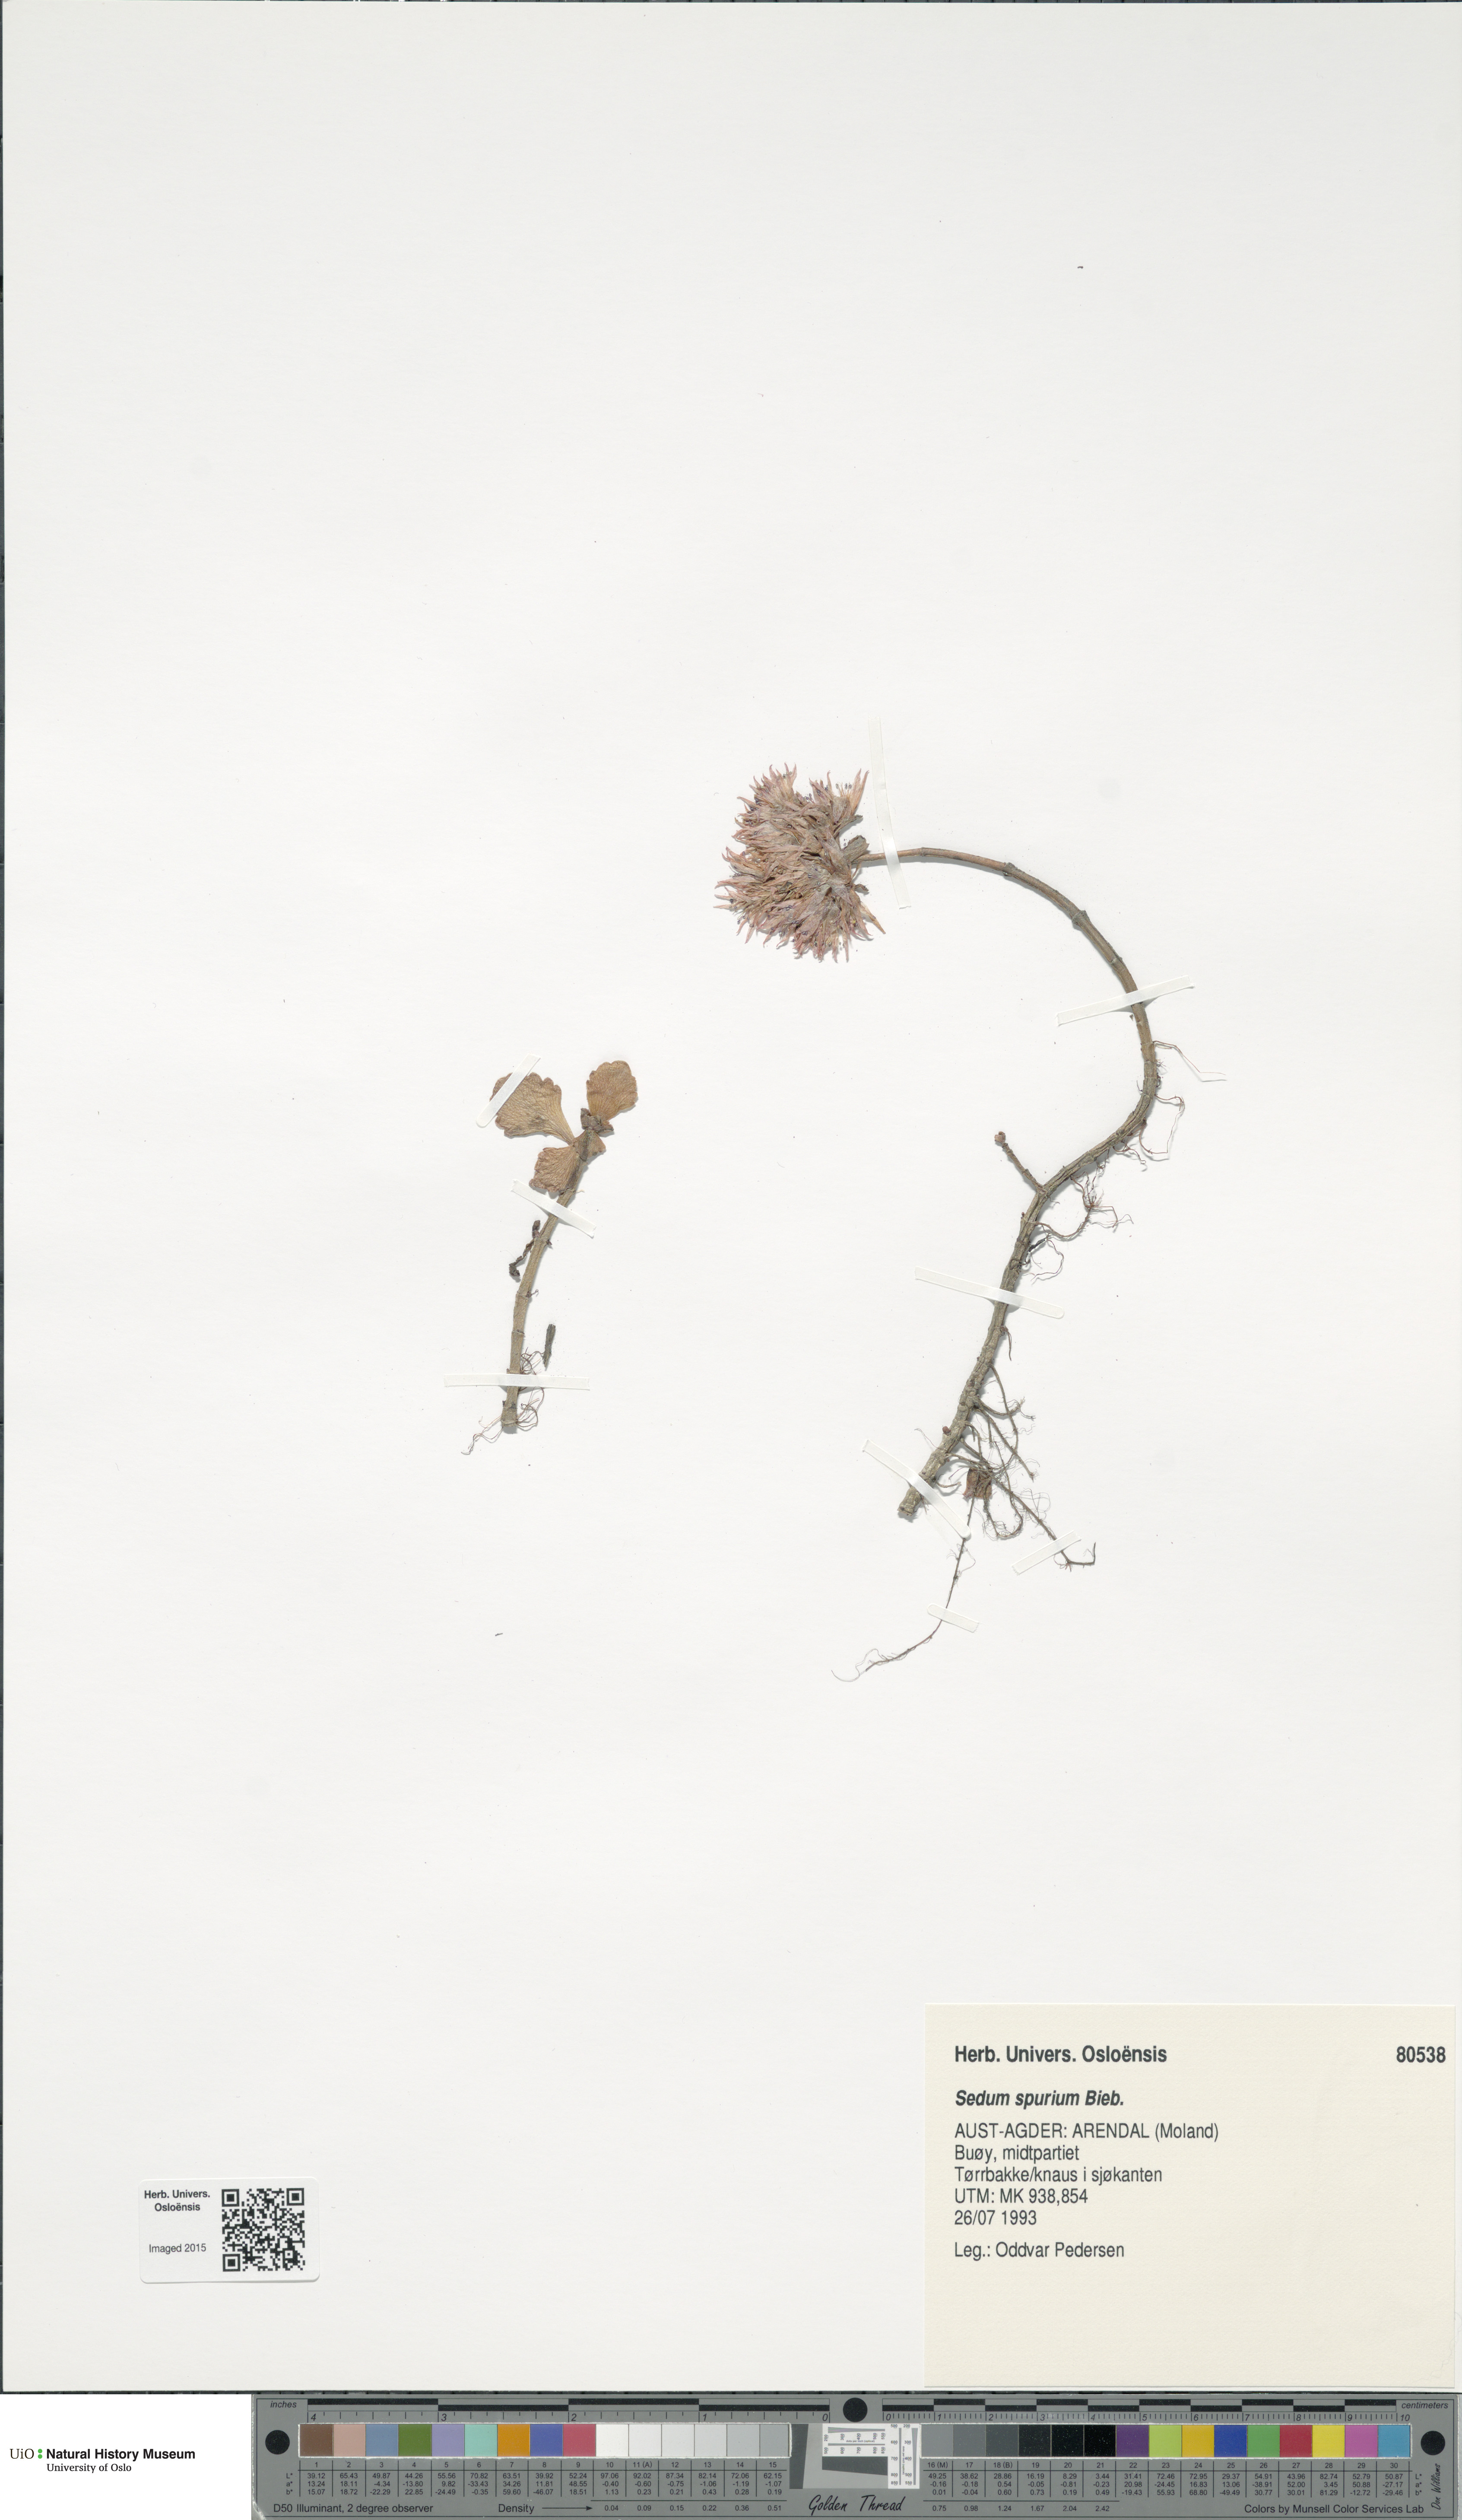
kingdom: Plantae
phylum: Tracheophyta
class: Magnoliopsida
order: Saxifragales
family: Crassulaceae
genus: Phedimus
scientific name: Phedimus spurius
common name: Caucasian stonecrop
